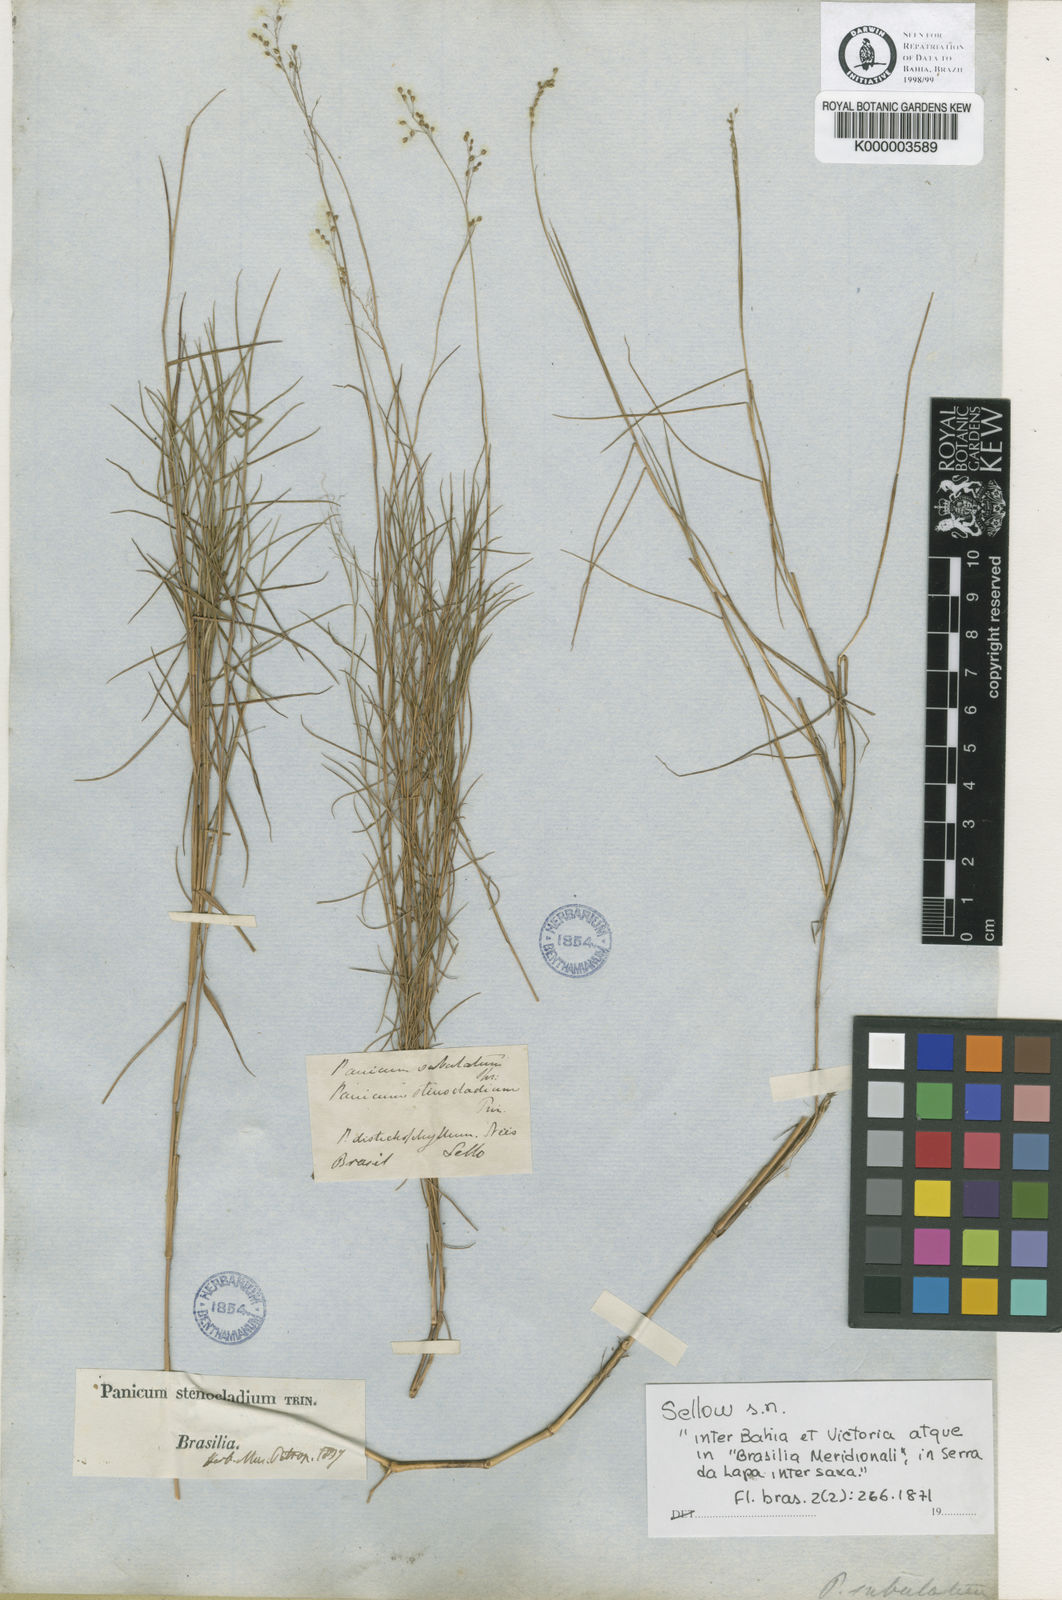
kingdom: Plantae
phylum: Tracheophyta
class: Liliopsida
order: Poales
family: Poaceae
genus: Trichanthecium
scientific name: Trichanthecium distichophyllum
